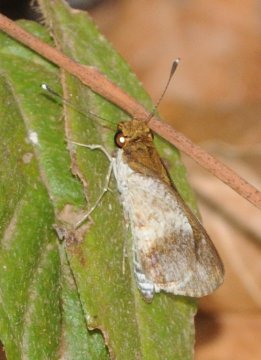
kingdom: Animalia
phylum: Arthropoda
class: Insecta
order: Lepidoptera
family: Hesperiidae
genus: Acleros
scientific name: Acleros mackenii
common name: Macken's Dart
